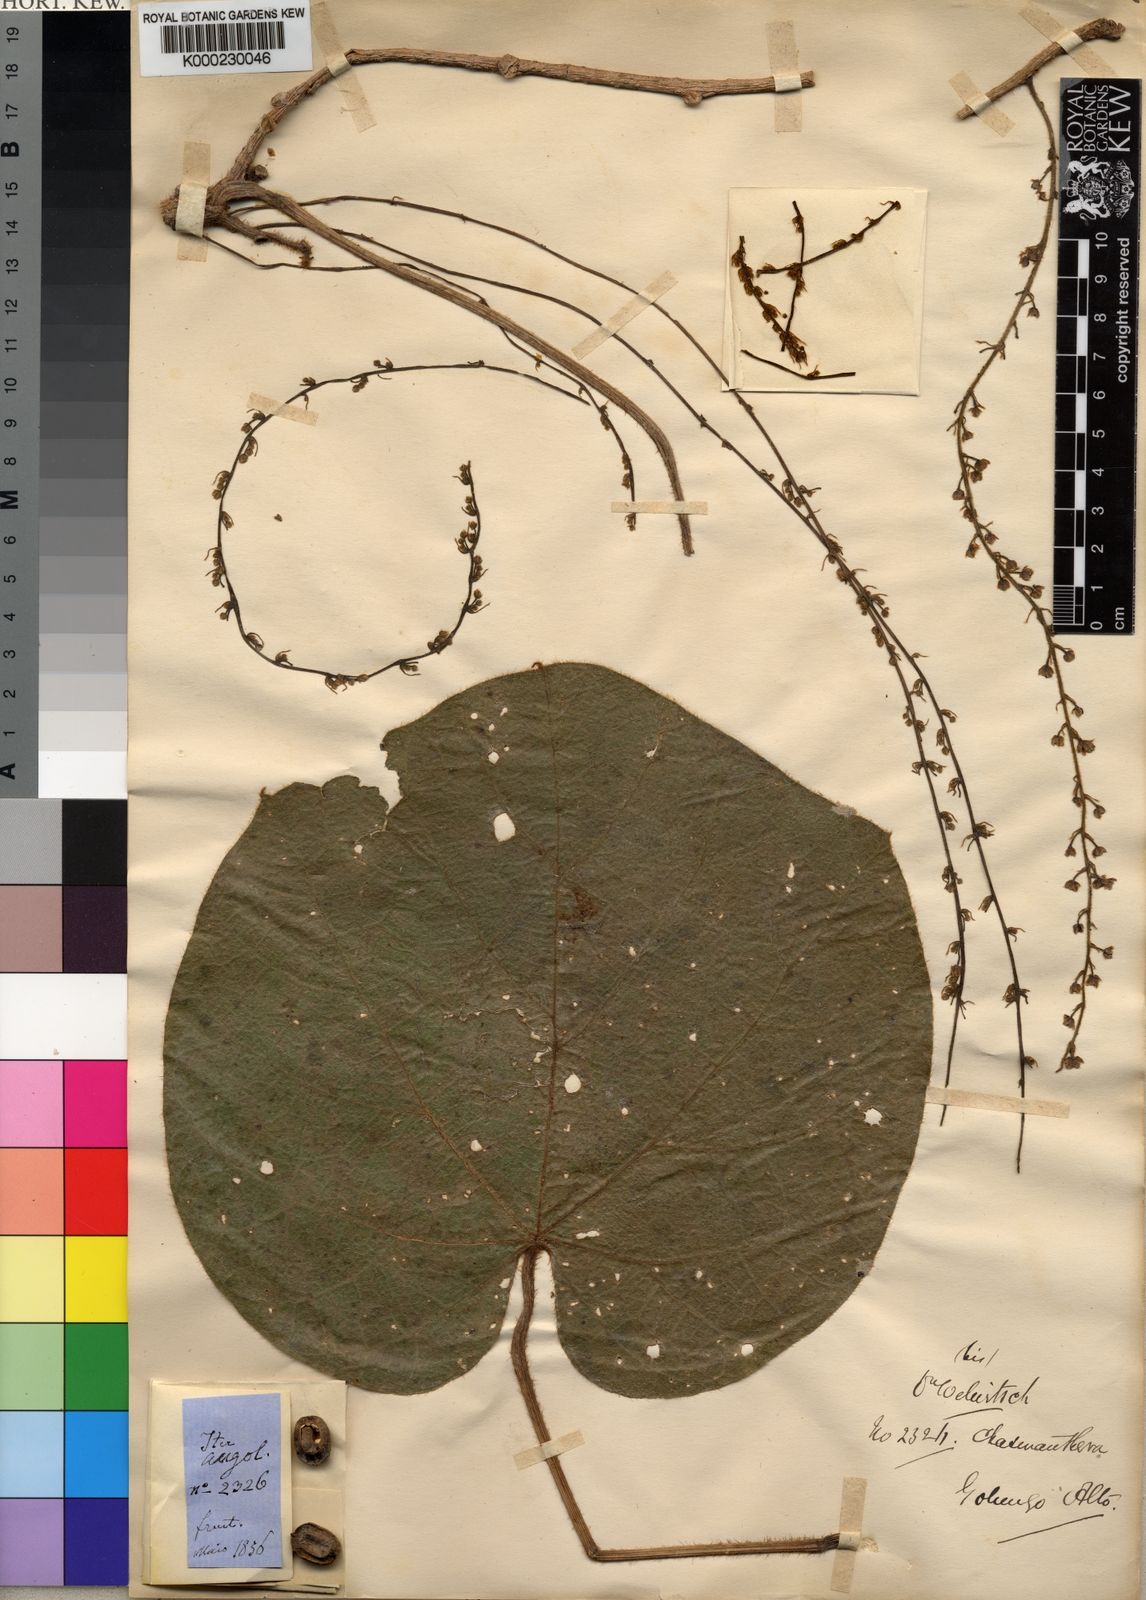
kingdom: Plantae
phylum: Tracheophyta
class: Magnoliopsida
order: Ranunculales
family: Menispermaceae
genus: Chasmanthera
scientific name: Chasmanthera welwitschii
